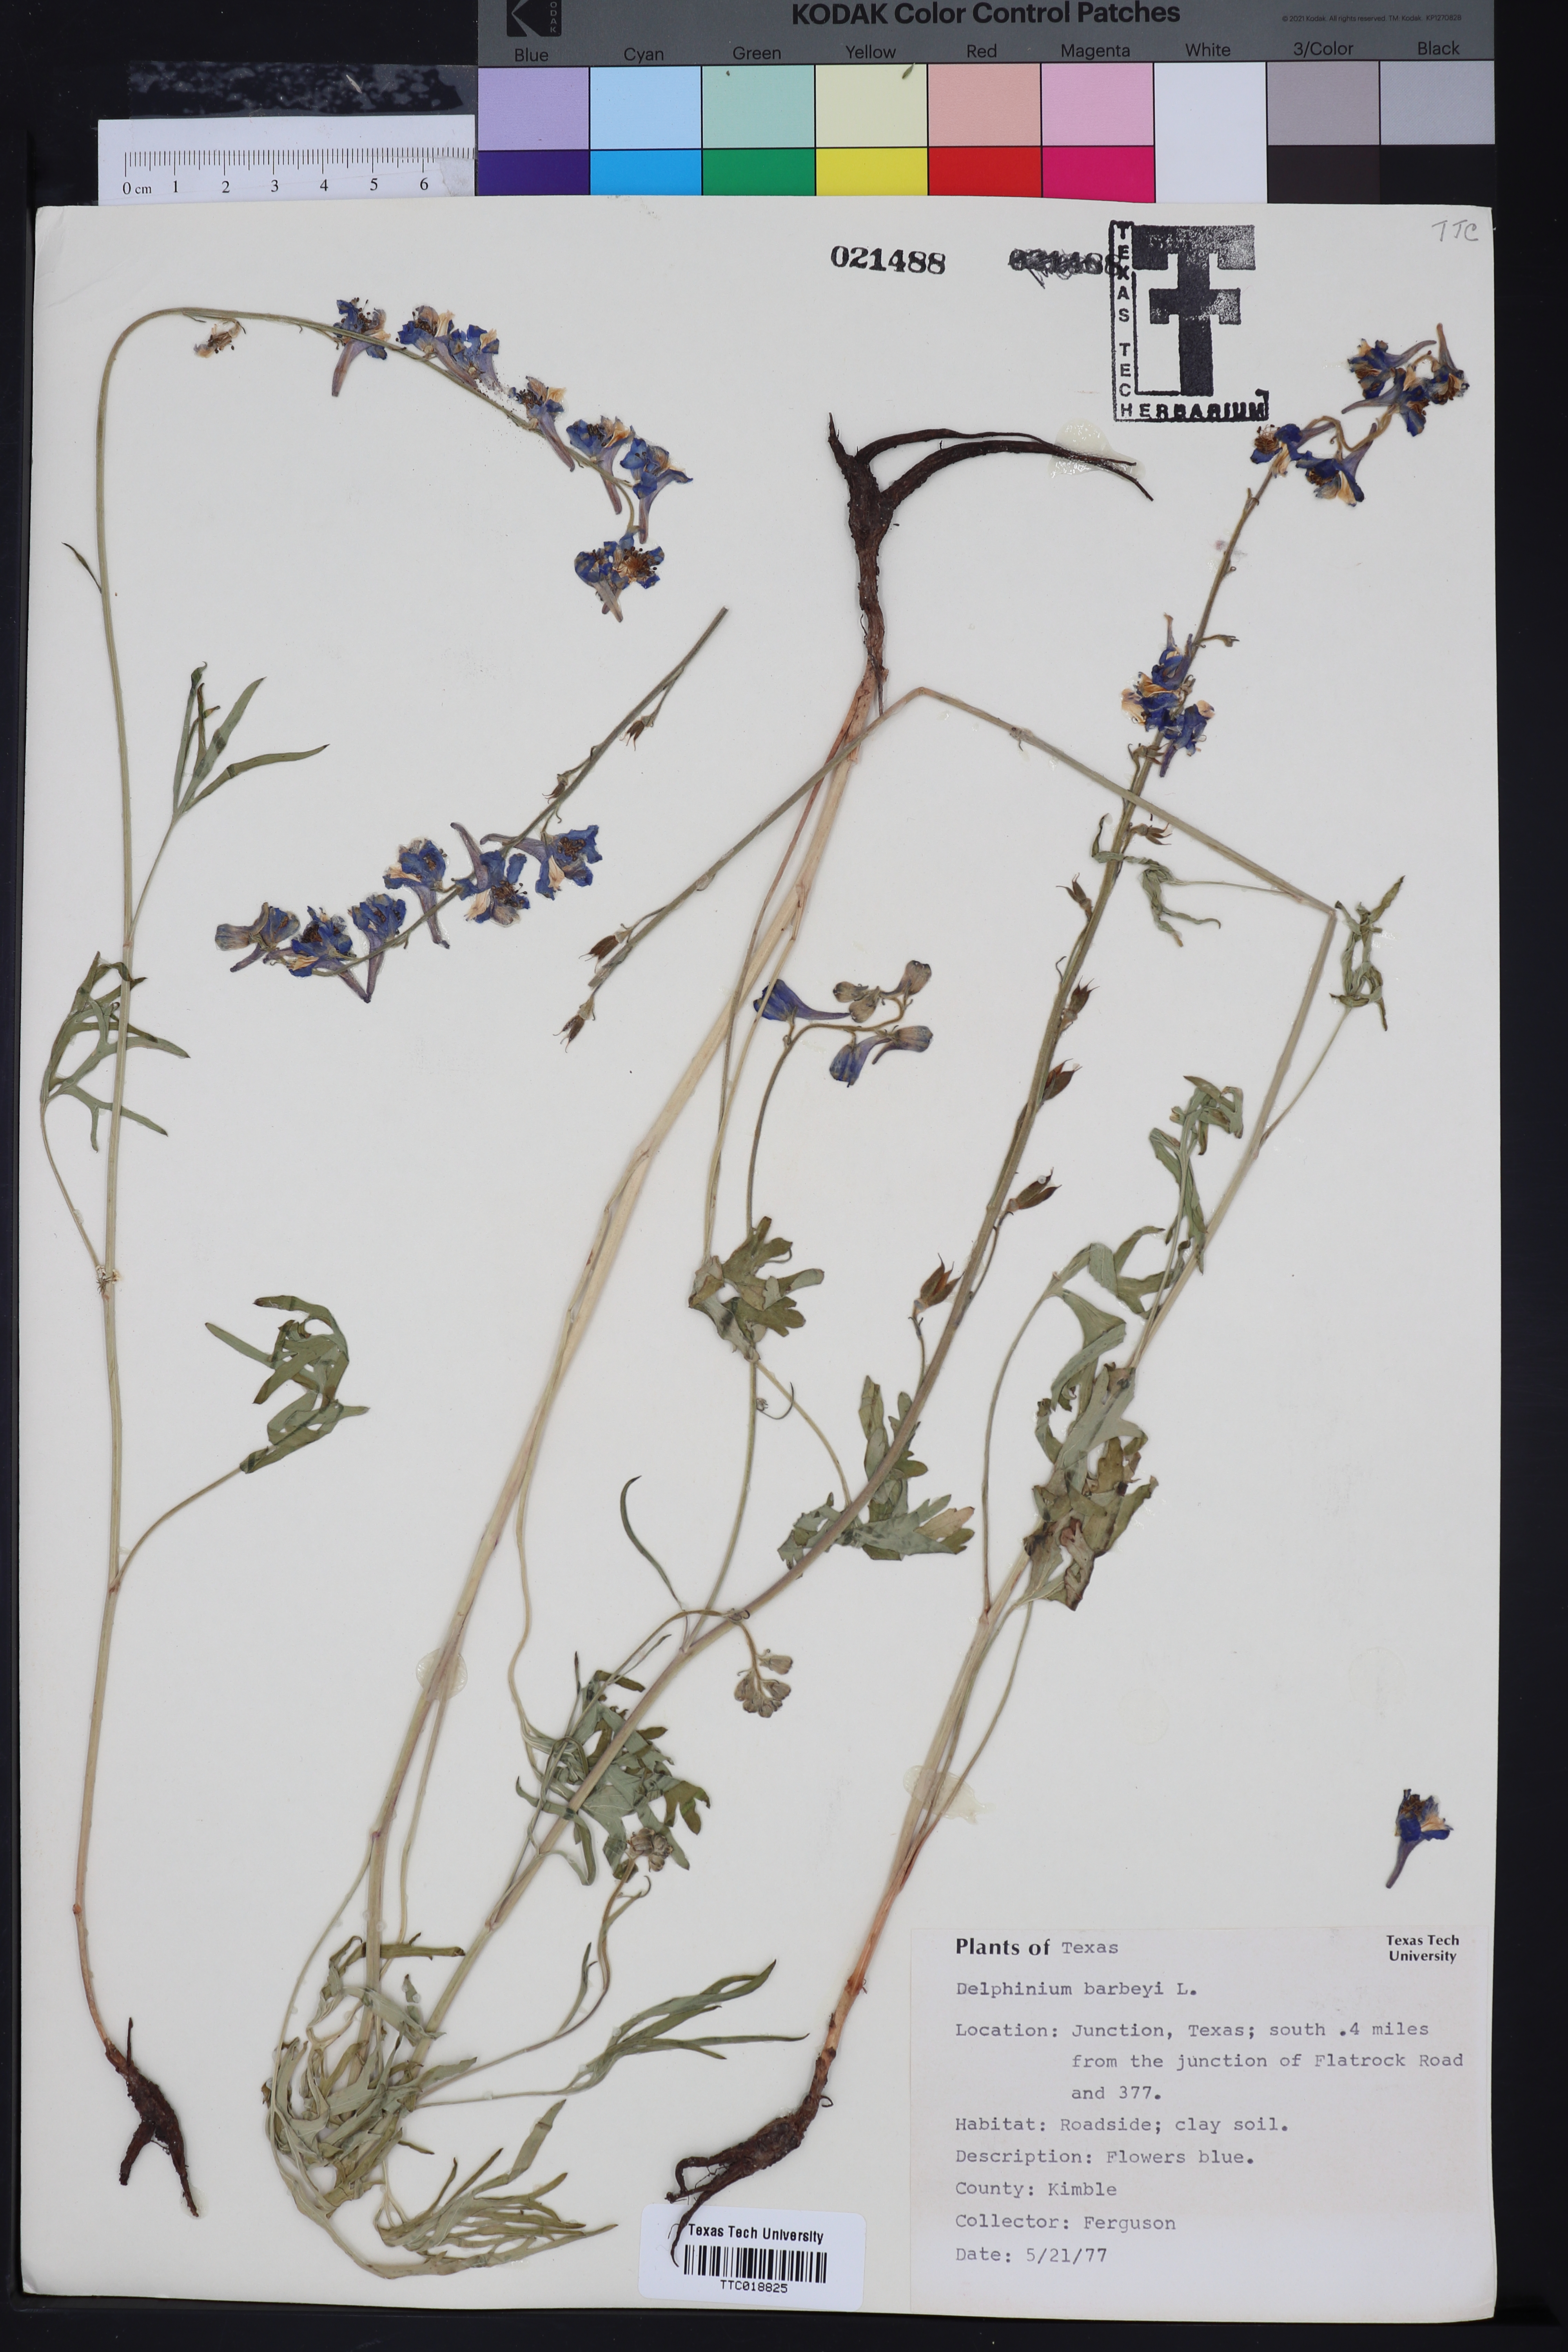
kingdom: Plantae
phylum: Tracheophyta
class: Magnoliopsida
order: Ranunculales
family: Ranunculaceae
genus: Delphinium
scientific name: Delphinium barbeyi
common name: Subalpine larkspur
